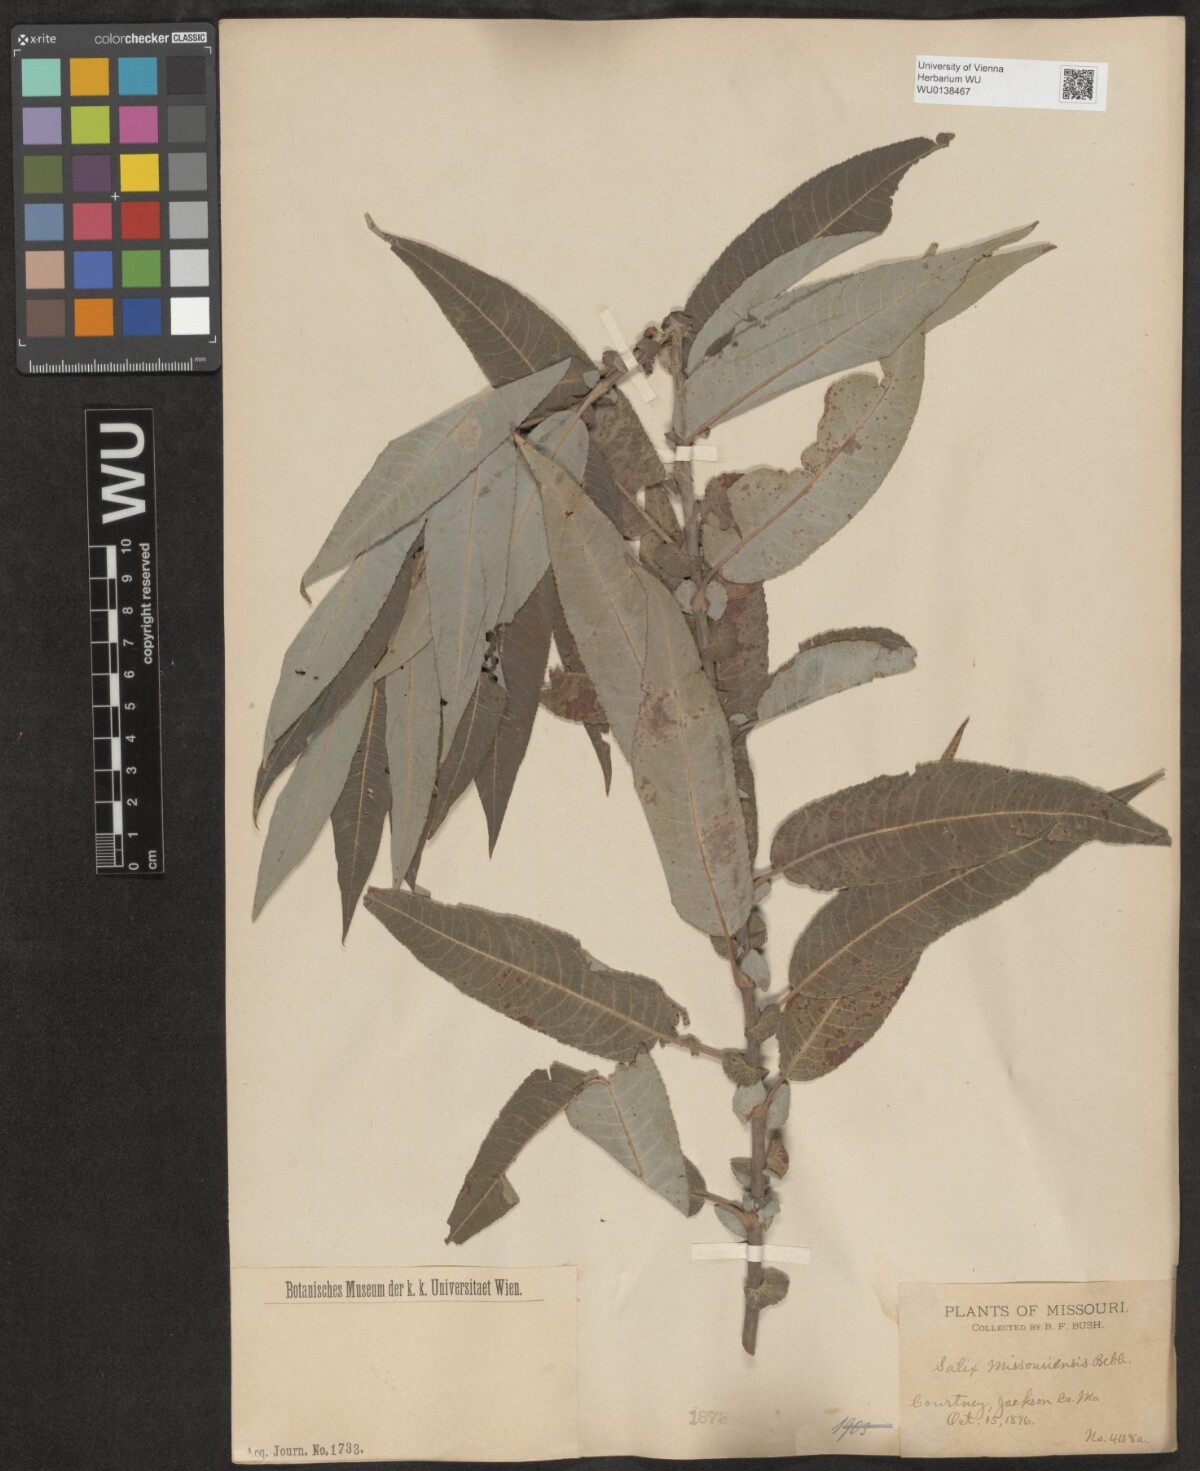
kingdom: Plantae
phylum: Tracheophyta
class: Magnoliopsida
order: Malpighiales
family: Salicaceae
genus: Salix
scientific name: Salix eriocephala
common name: Heart-leaved willow
